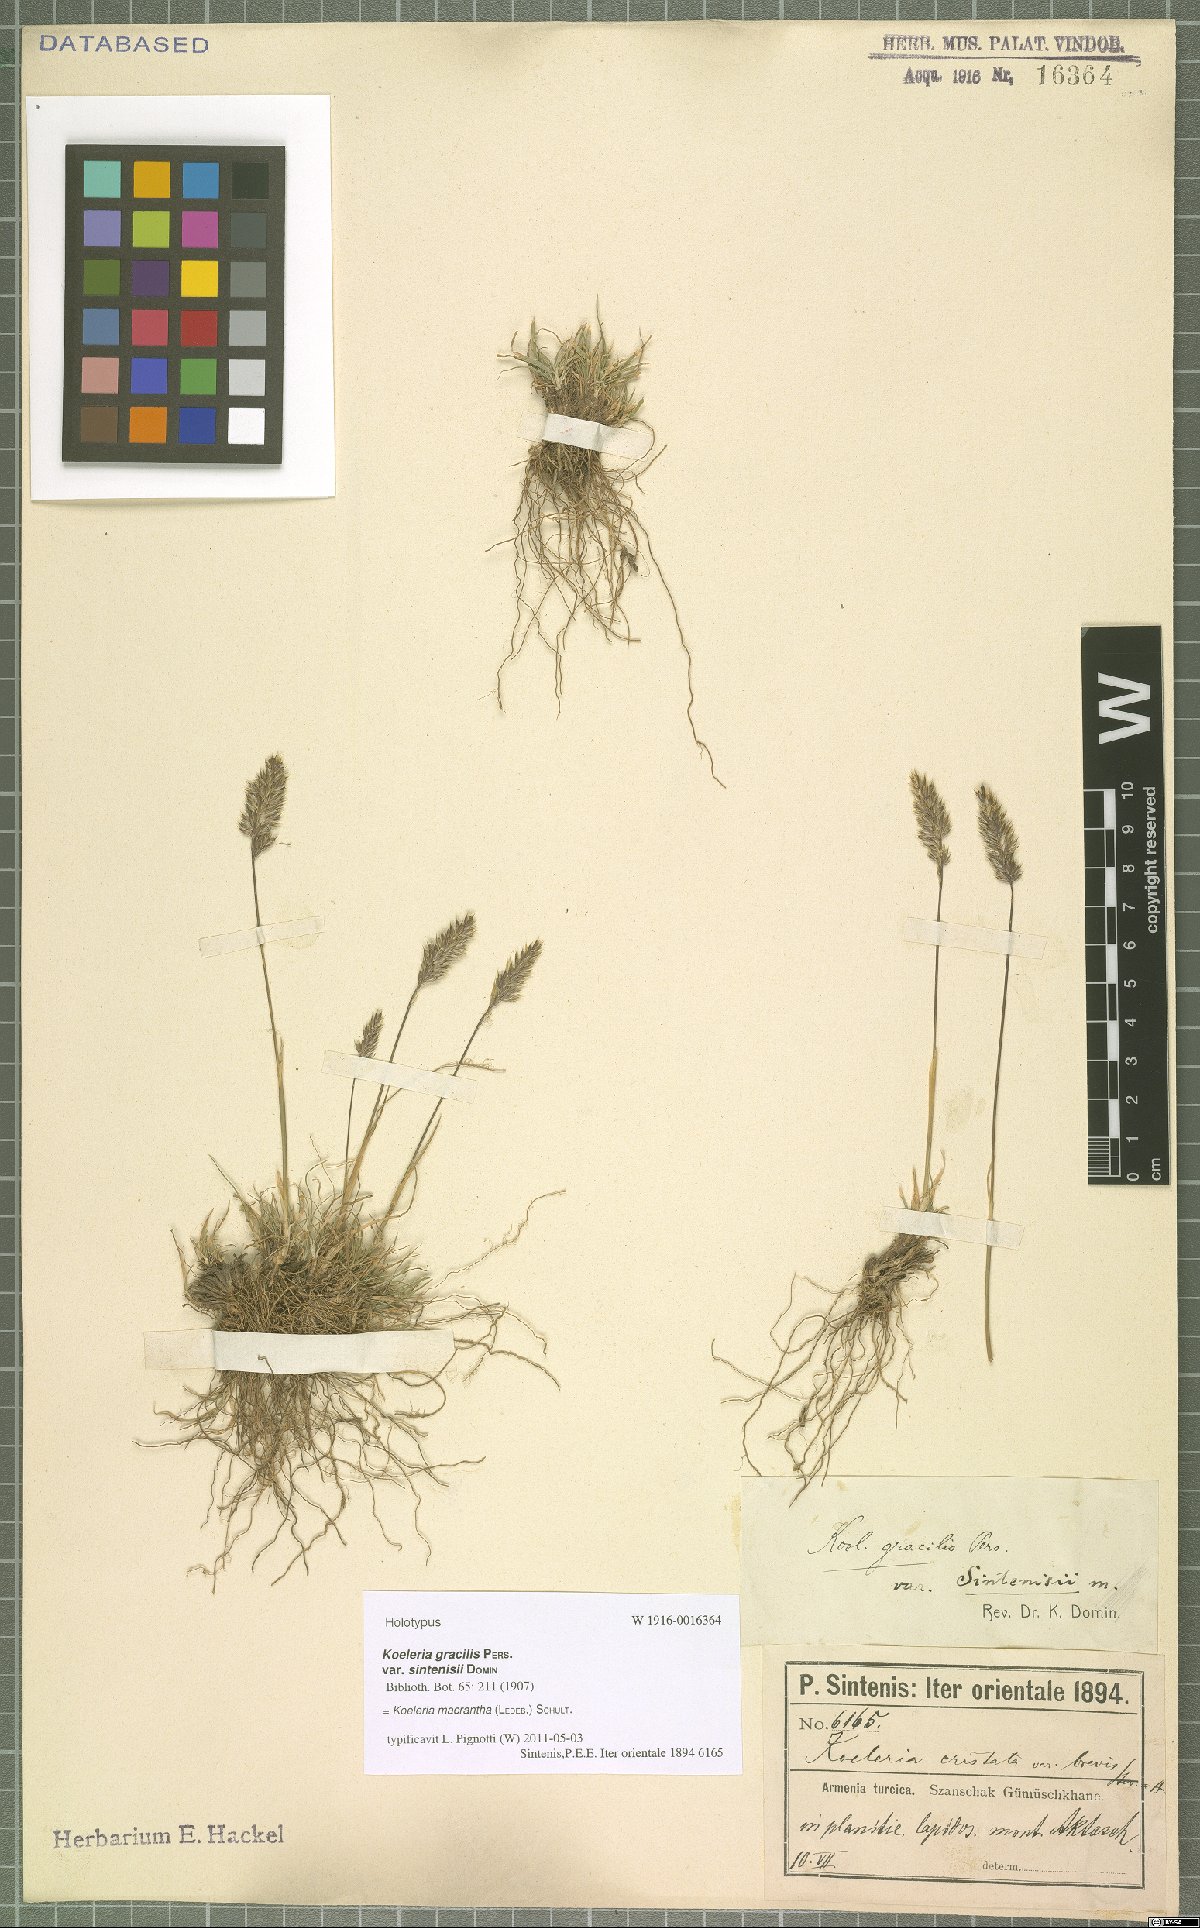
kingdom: Plantae
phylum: Tracheophyta
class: Liliopsida
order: Poales
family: Poaceae
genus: Koeleria
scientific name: Koeleria macrantha
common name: Crested hair-grass
